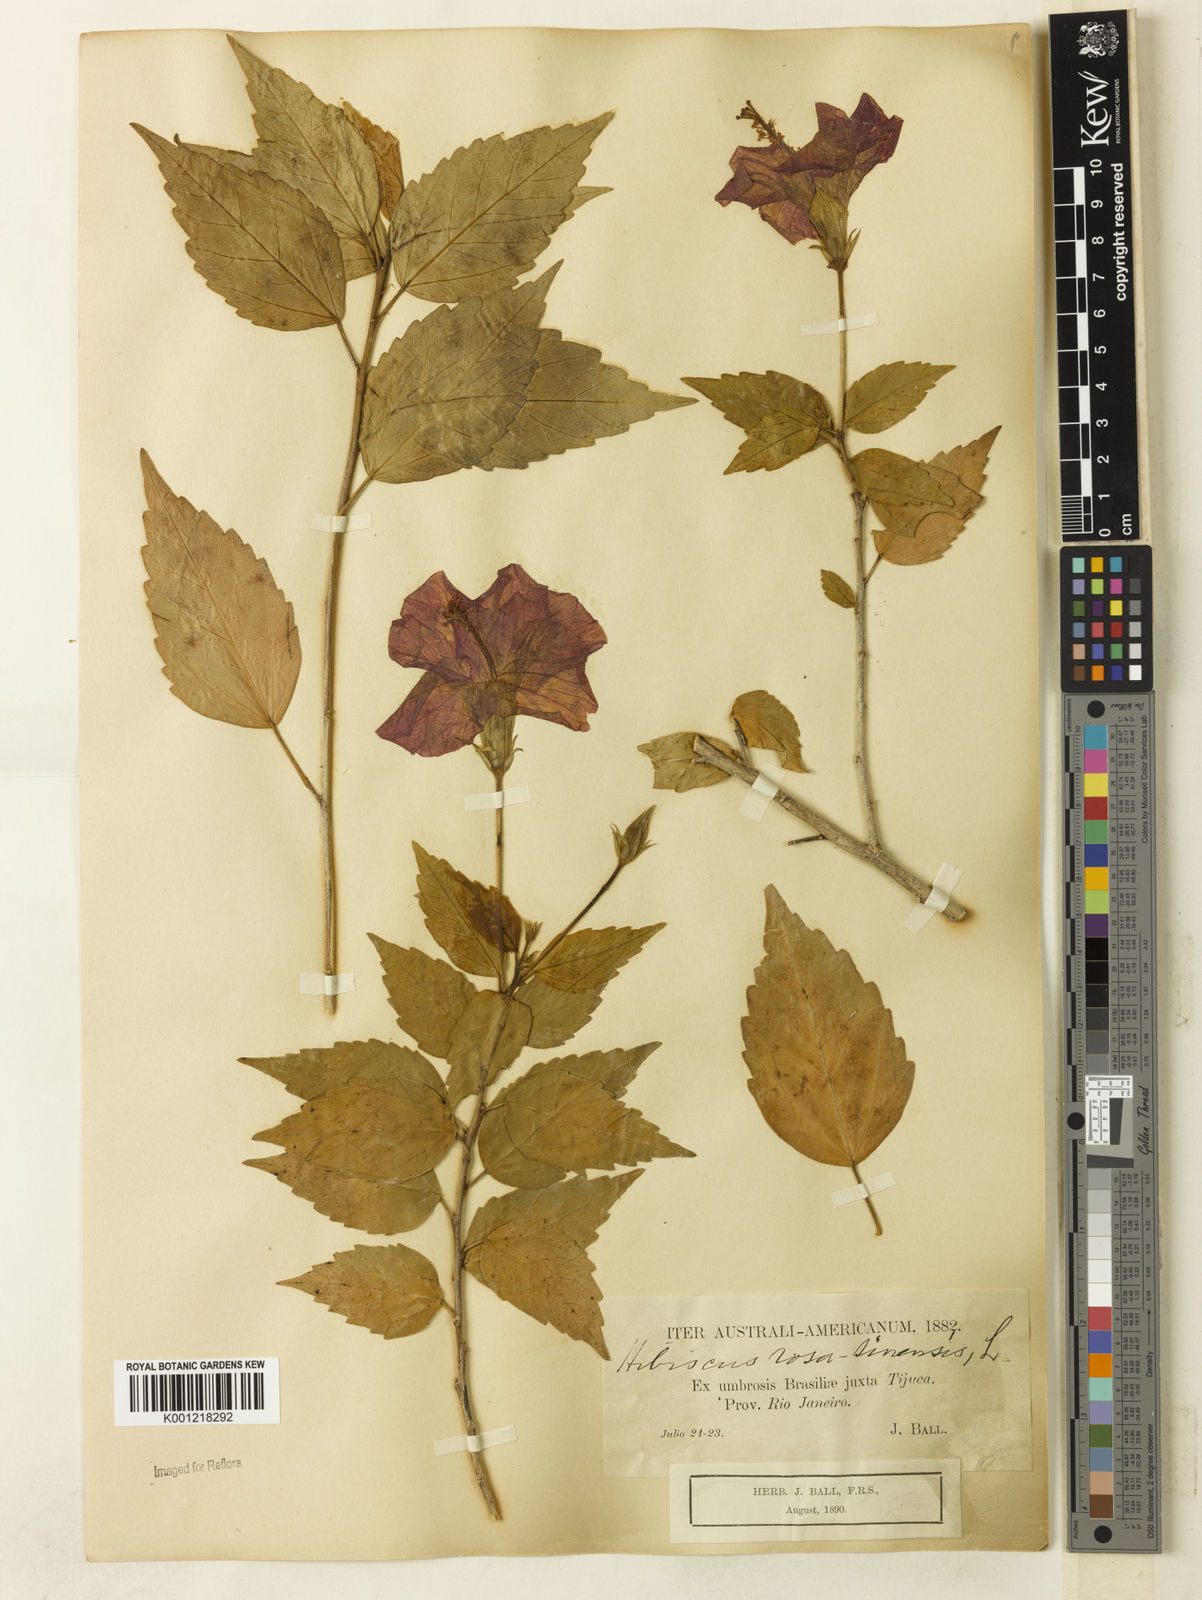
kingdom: Plantae
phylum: Tracheophyta
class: Magnoliopsida
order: Malvales
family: Malvaceae
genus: Hibiscus
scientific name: Hibiscus rosa-sinensis
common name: Hibiscus
